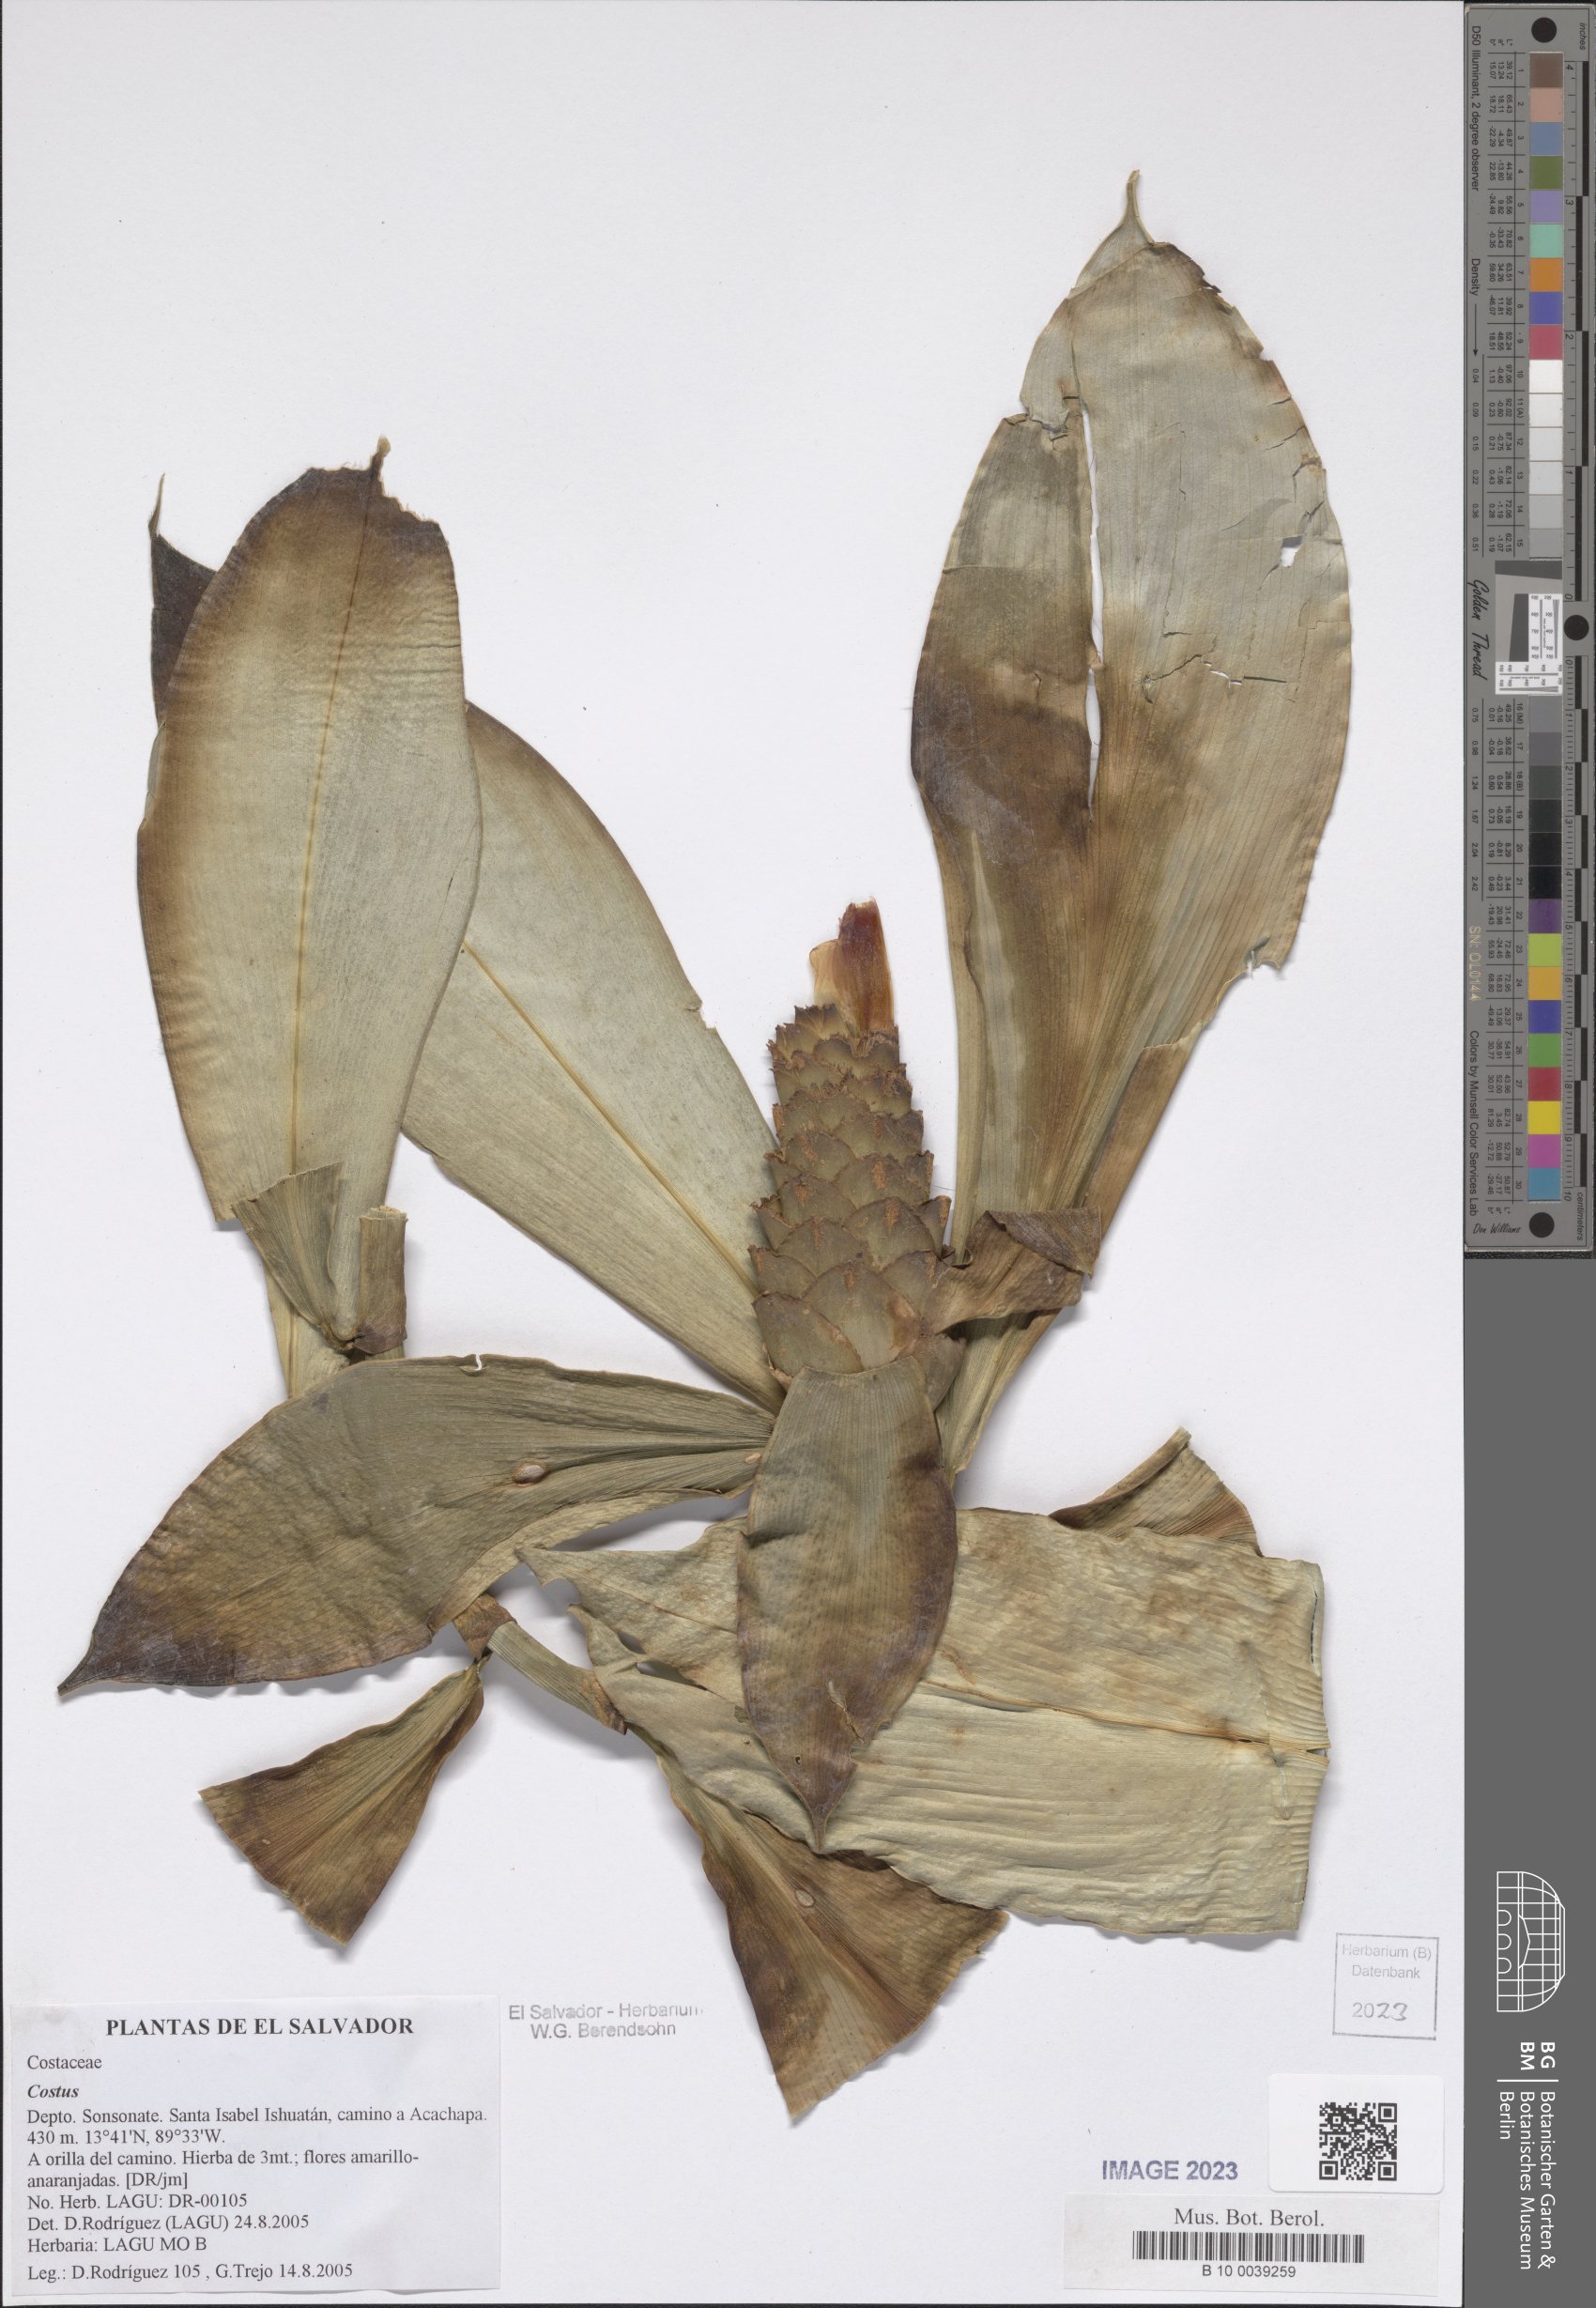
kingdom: Plantae
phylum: Tracheophyta
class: Liliopsida
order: Zingiberales
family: Costaceae
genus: Costus
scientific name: Costus
